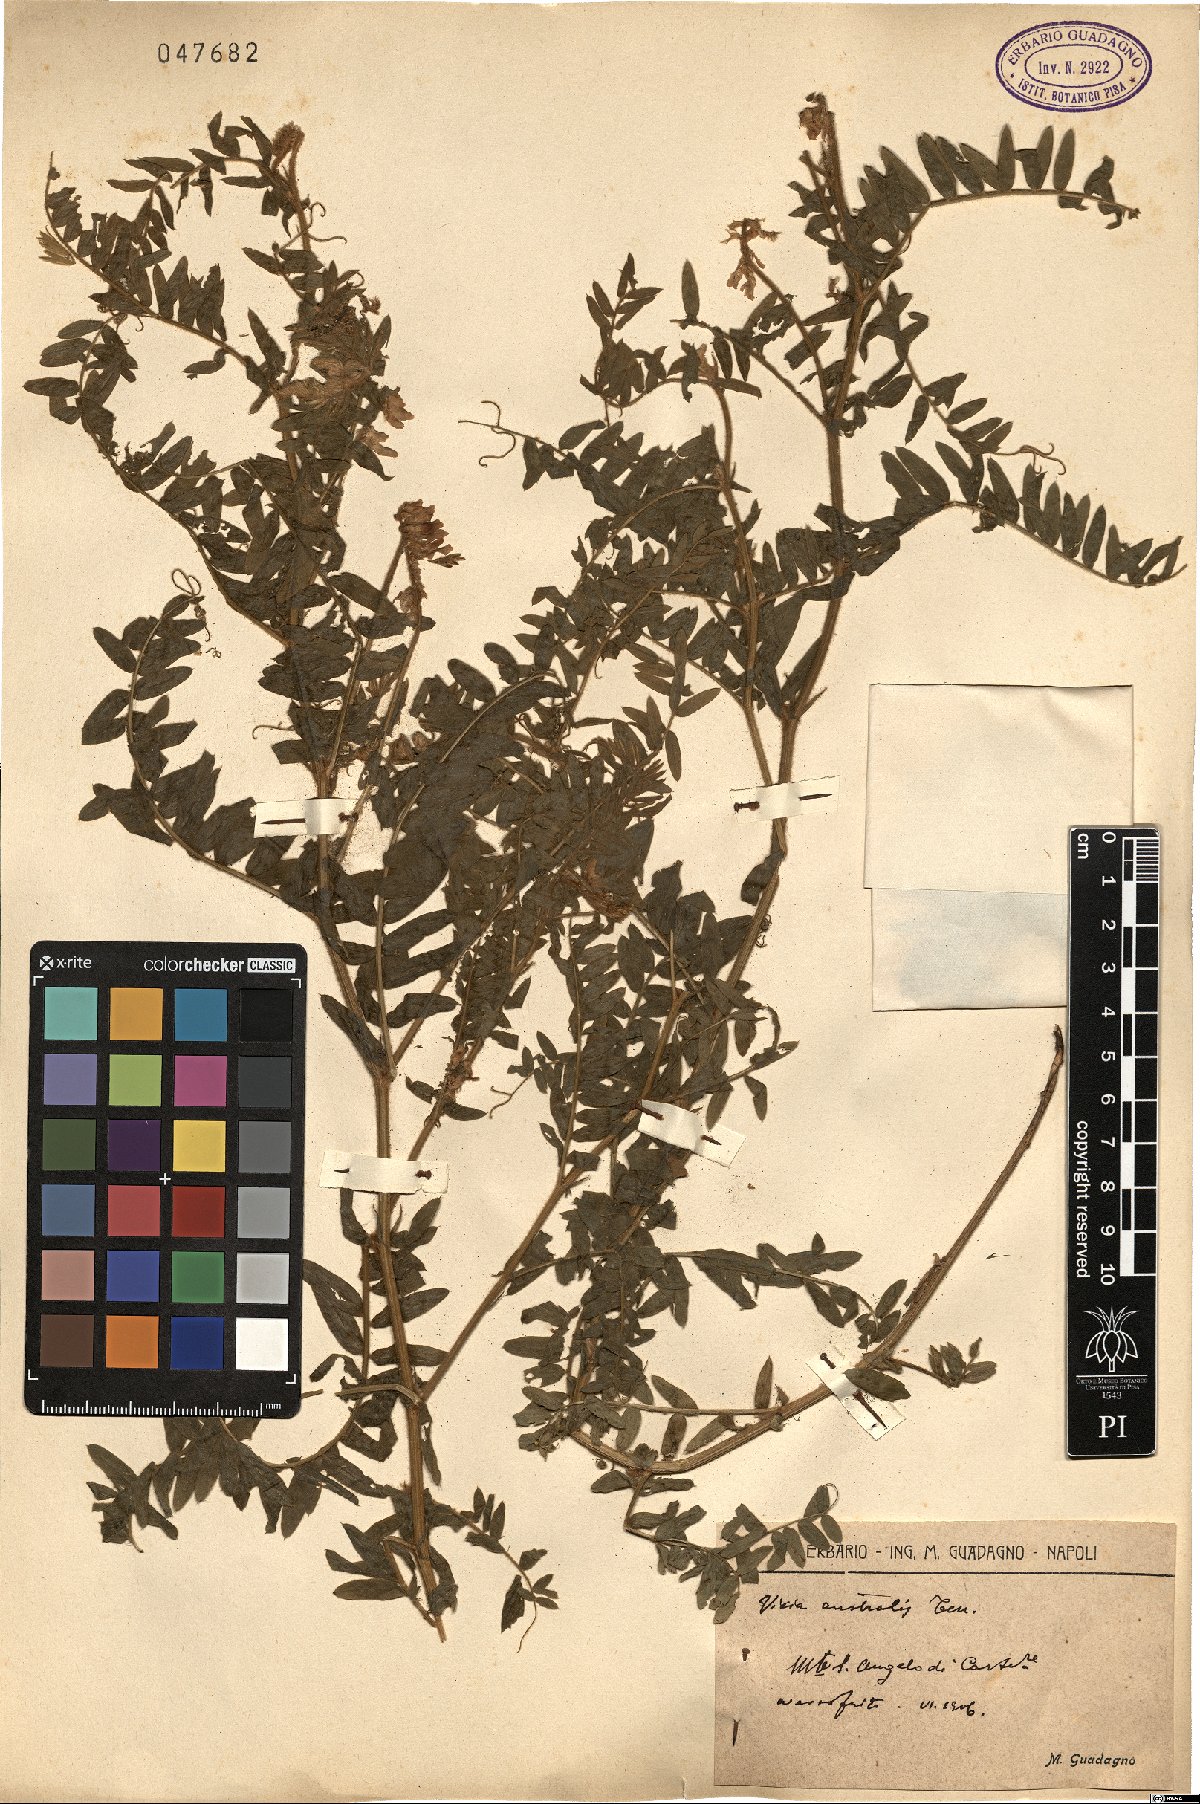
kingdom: Plantae
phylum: Tracheophyta
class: Magnoliopsida
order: Fabales
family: Fabaceae
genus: Vicia
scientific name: Vicia cracca
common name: Bird vetch
